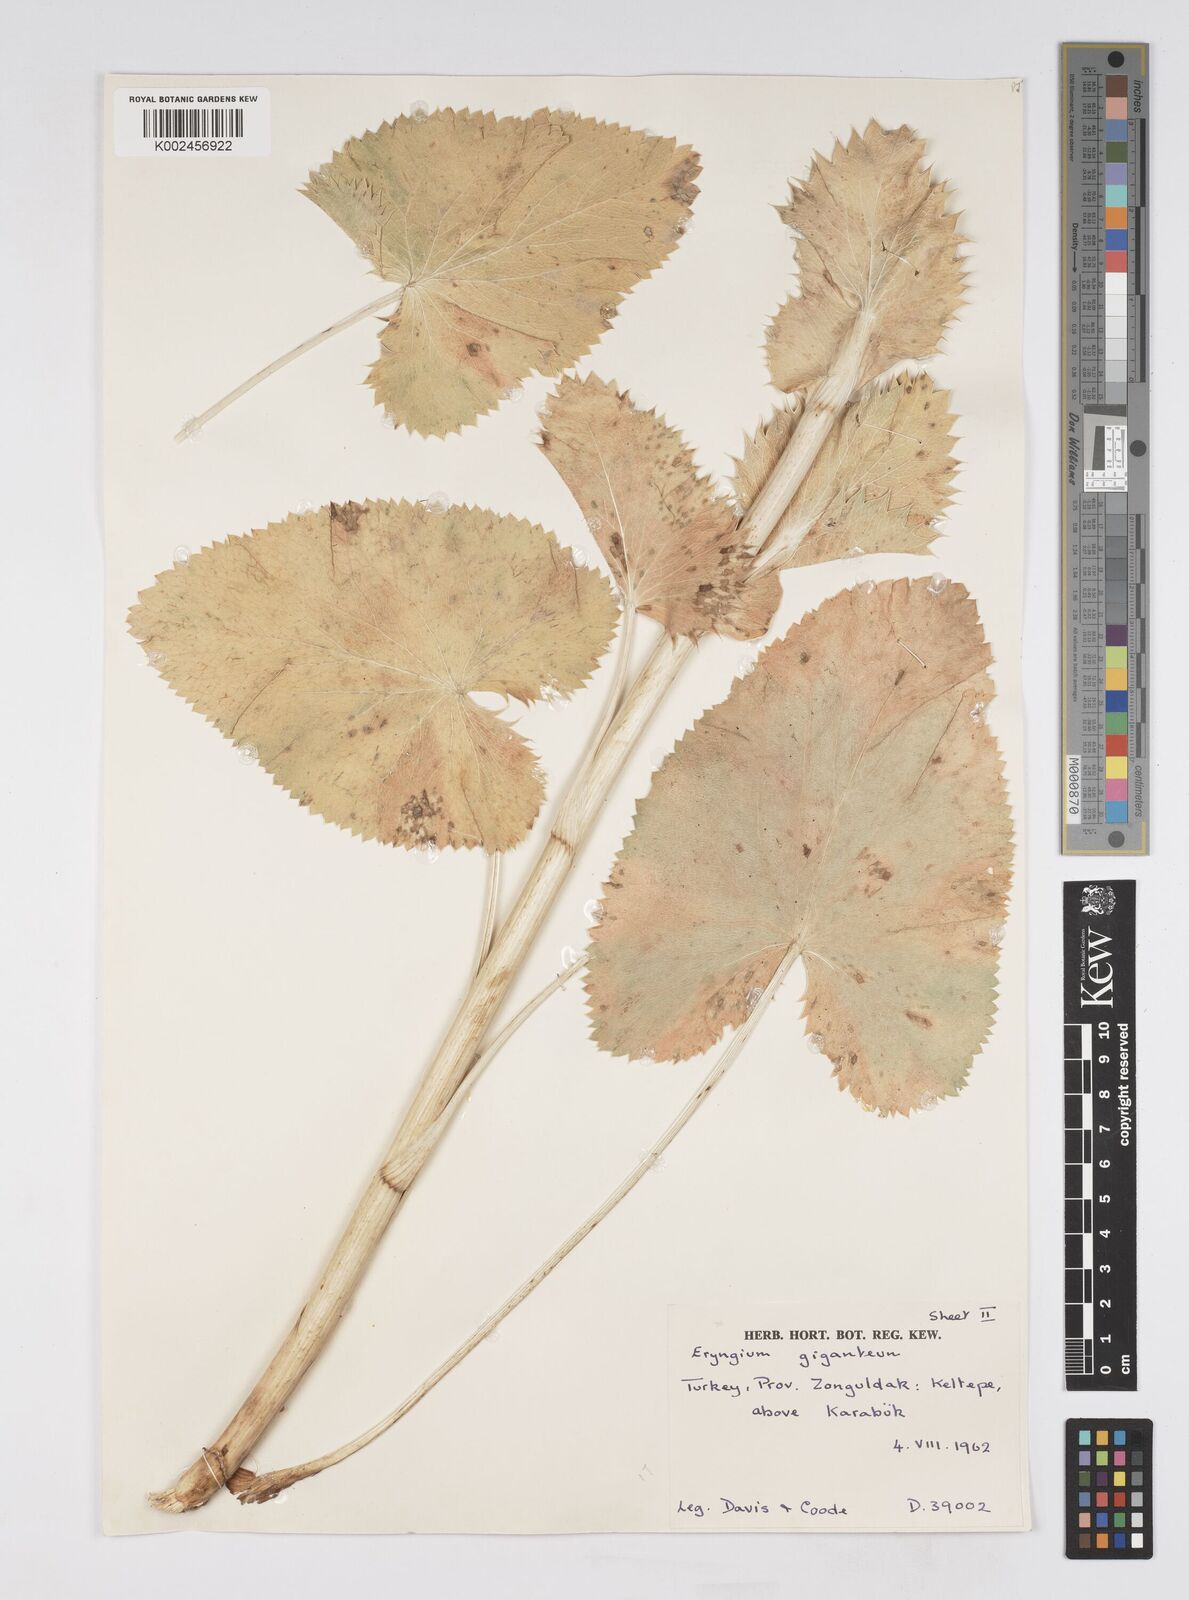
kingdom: Plantae
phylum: Tracheophyta
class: Magnoliopsida
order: Apiales
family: Apiaceae
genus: Eryngium
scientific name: Eryngium giganteum
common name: Tall eryngo
